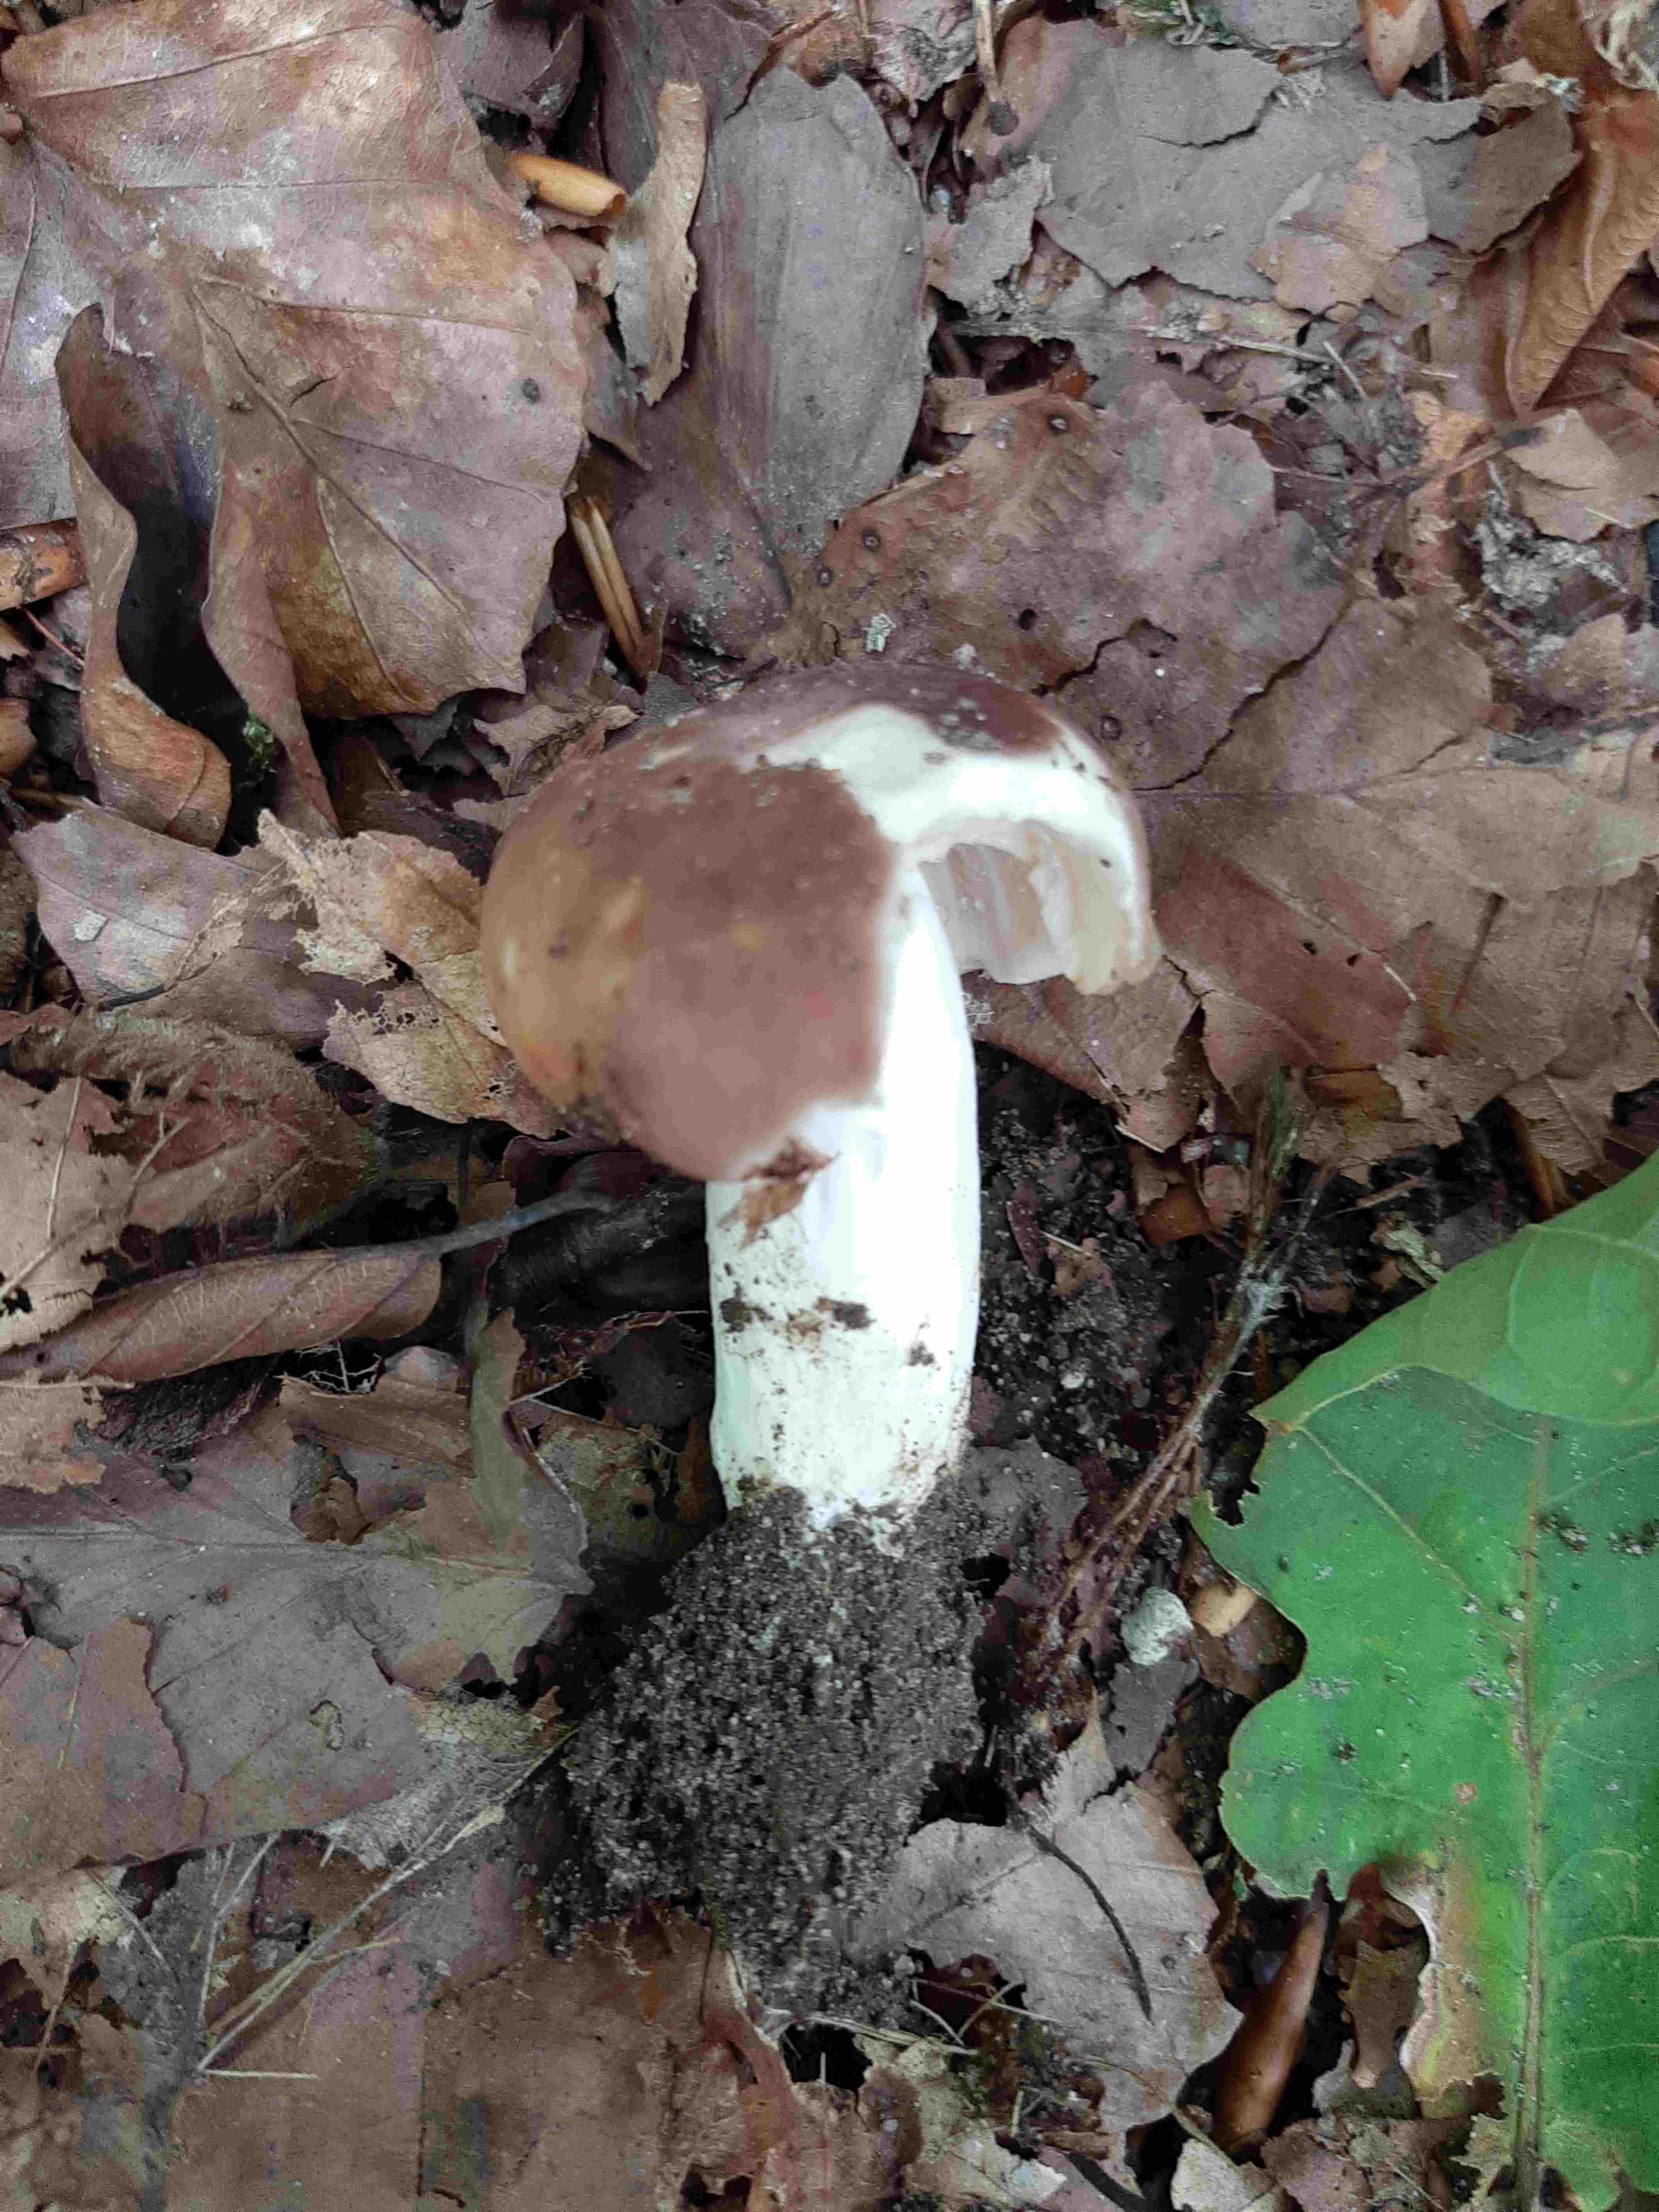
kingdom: Fungi
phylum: Basidiomycota
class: Agaricomycetes
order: Russulales
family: Russulaceae
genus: Russula
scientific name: Russula
